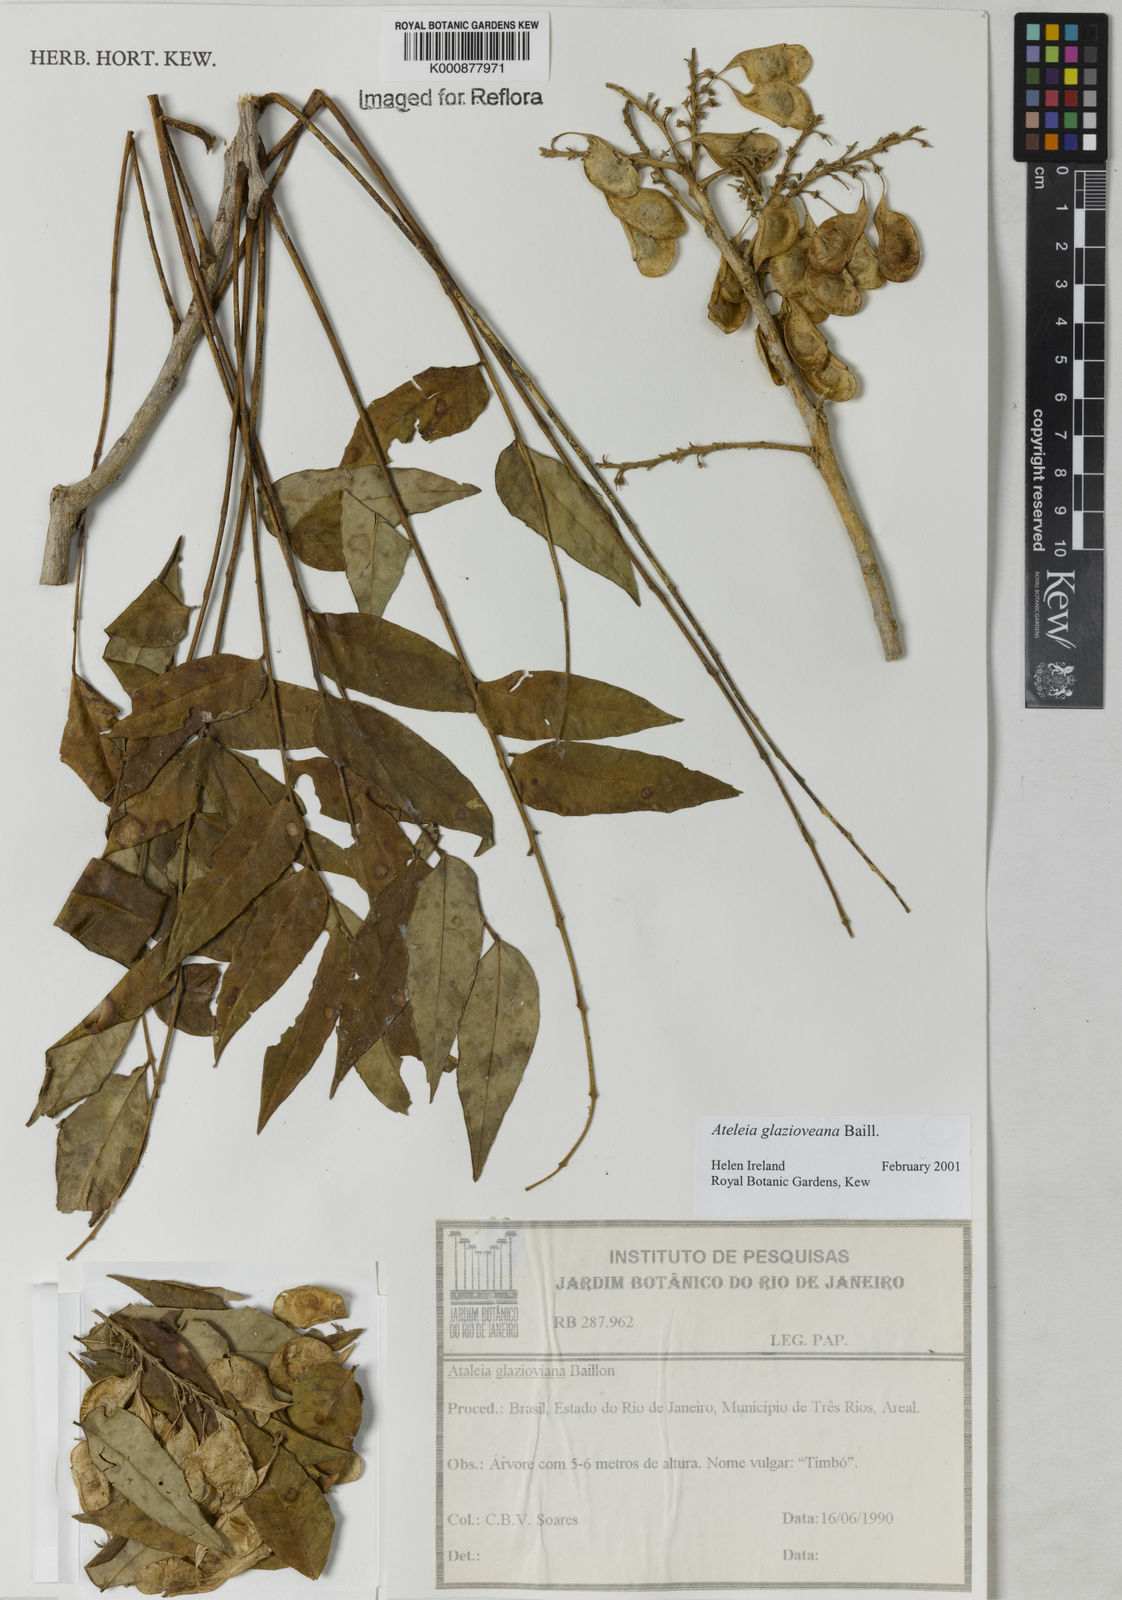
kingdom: Plantae
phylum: Tracheophyta
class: Magnoliopsida
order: Fabales
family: Fabaceae
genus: Ateleia
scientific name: Ateleia glazioveana
